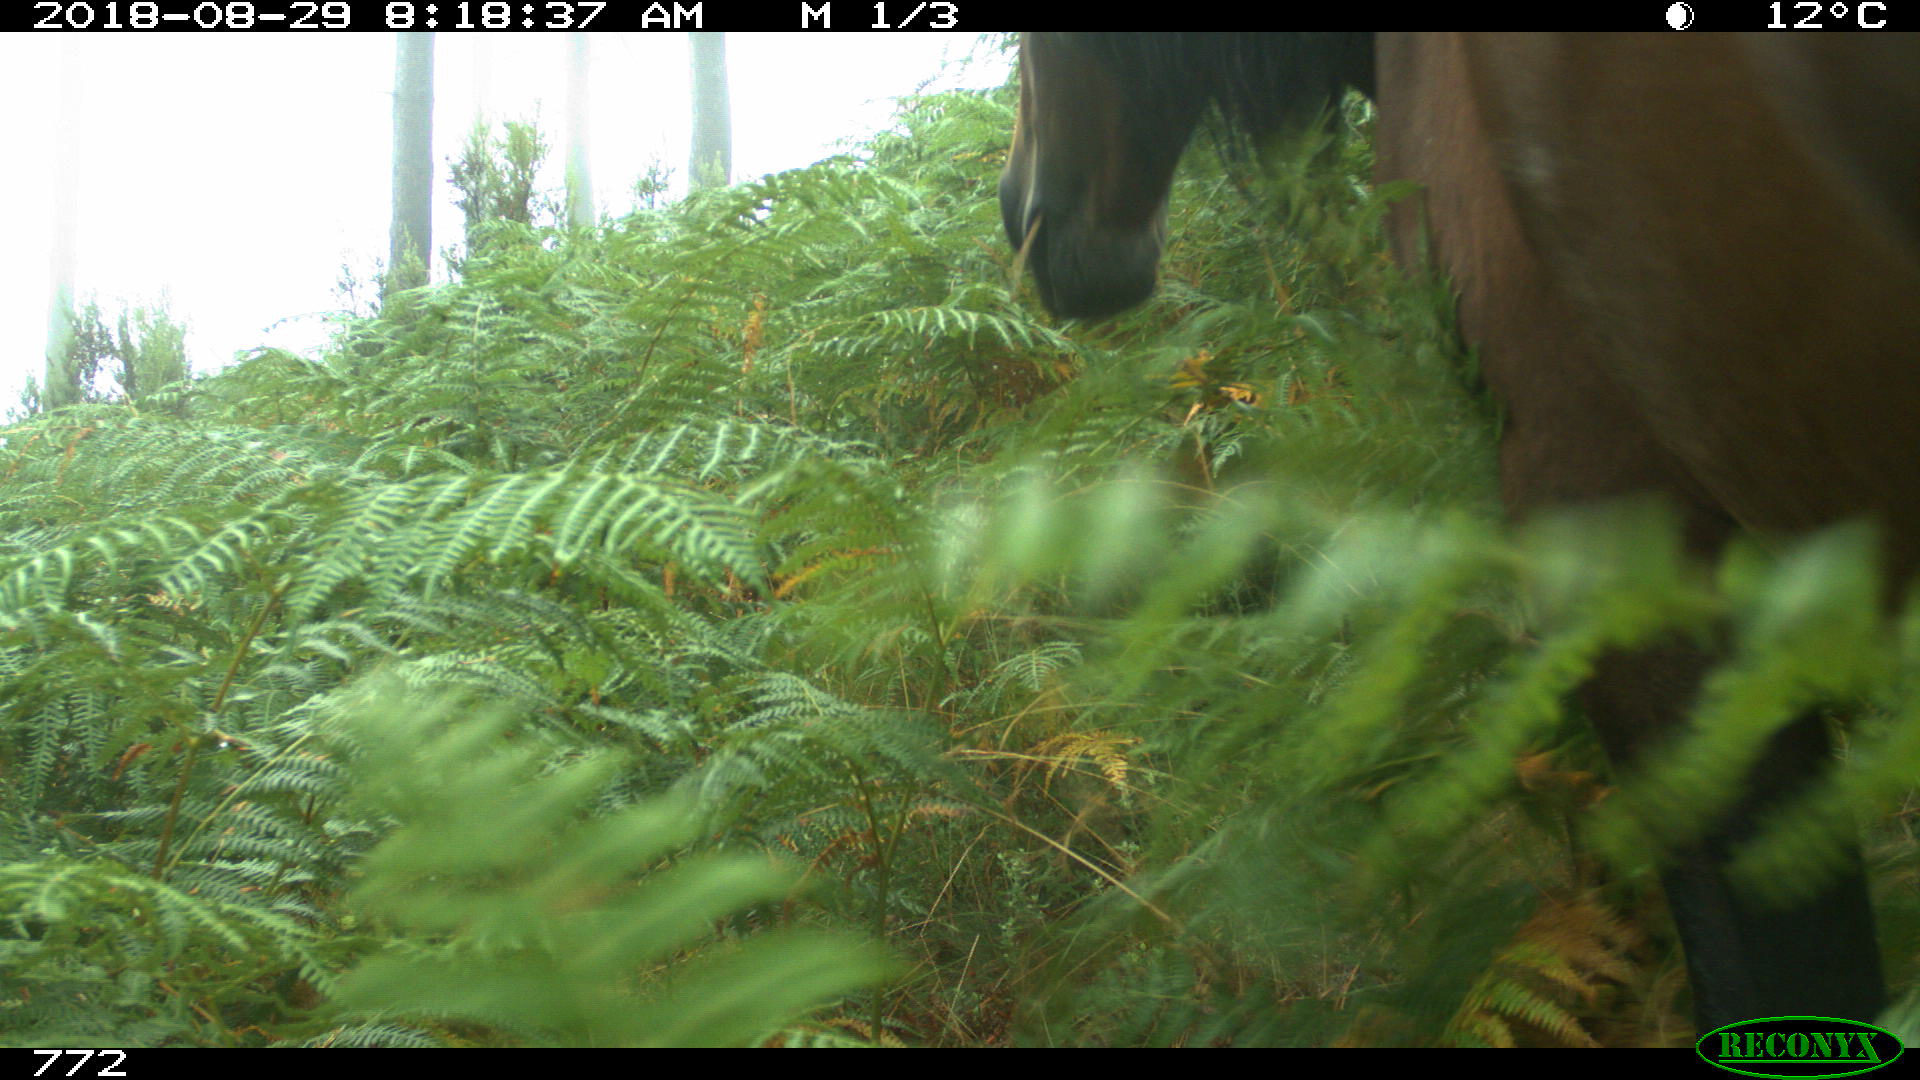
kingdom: Animalia
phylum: Chordata
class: Mammalia
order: Perissodactyla
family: Equidae
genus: Equus
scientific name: Equus caballus
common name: Horse
